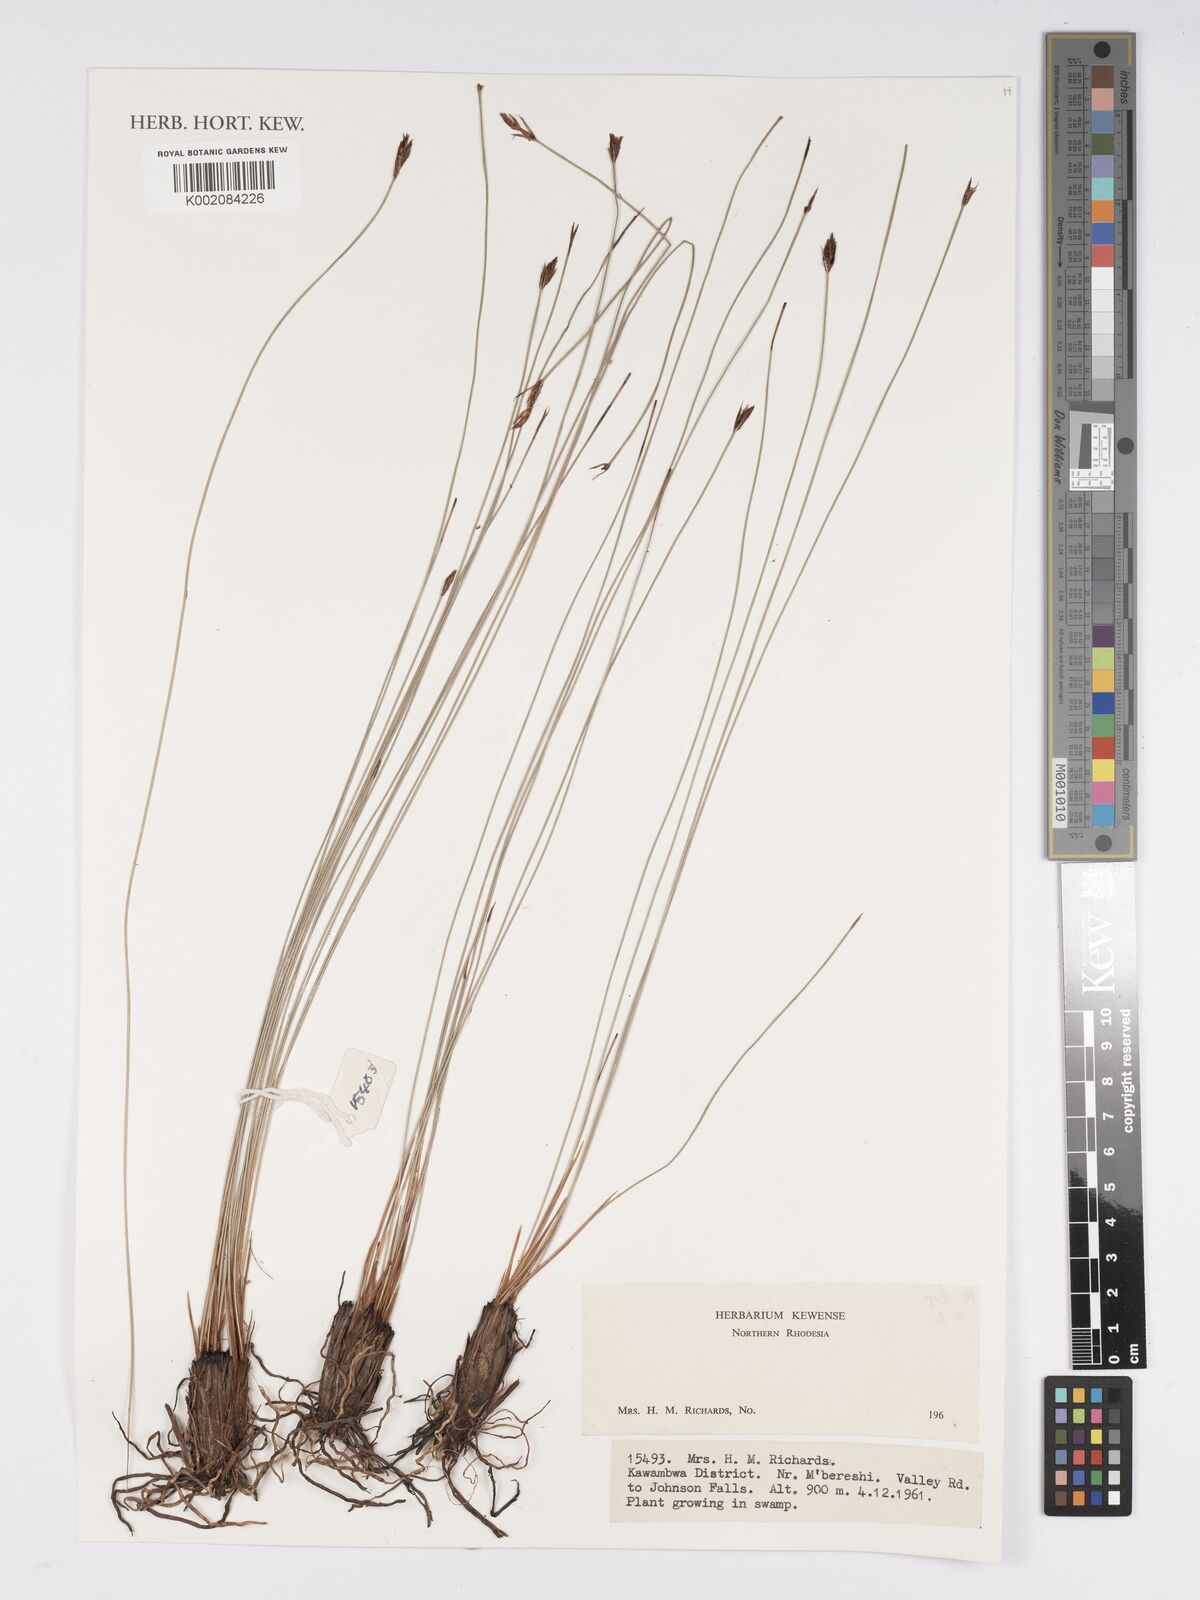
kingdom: Plantae
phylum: Tracheophyta
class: Liliopsida
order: Poales
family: Cyperaceae
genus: Bulbostylis
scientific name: Bulbostylis
